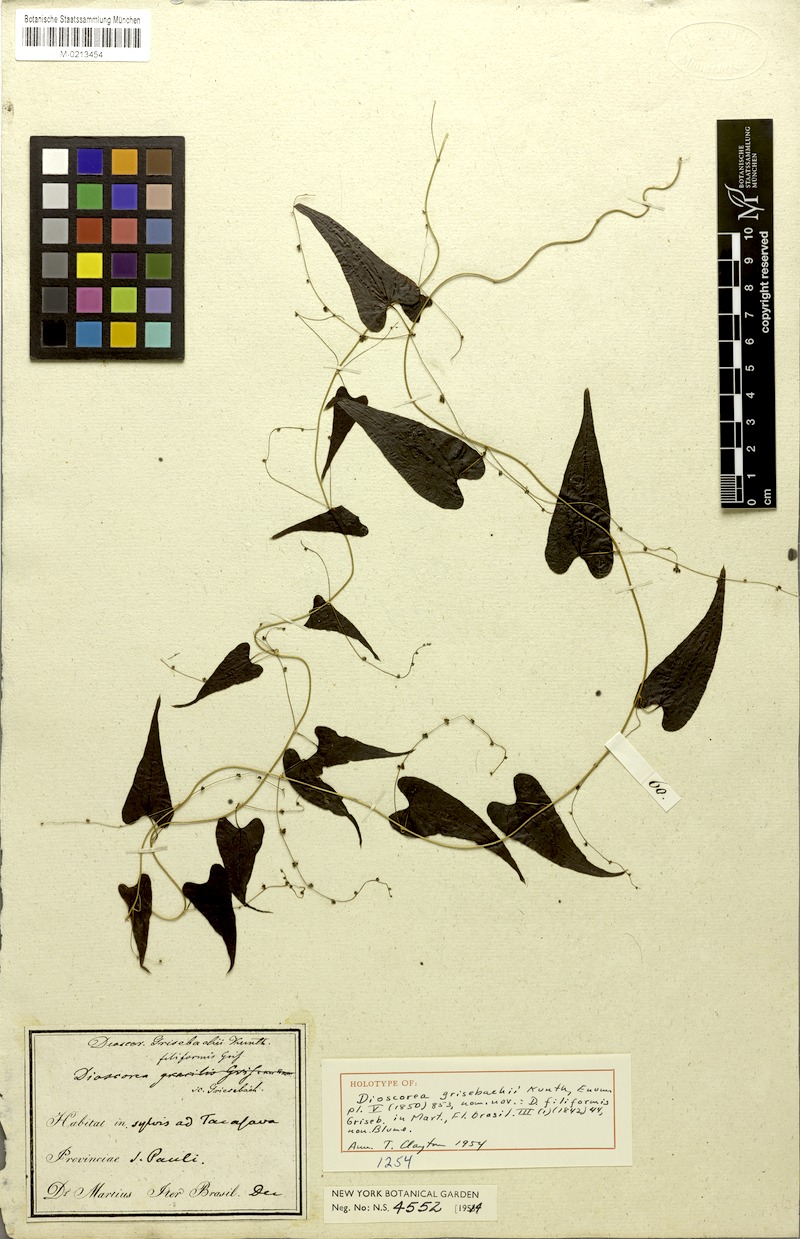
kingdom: Plantae
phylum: Tracheophyta
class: Liliopsida
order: Dioscoreales
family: Dioscoreaceae
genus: Dioscorea
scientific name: Dioscorea grisebachii
